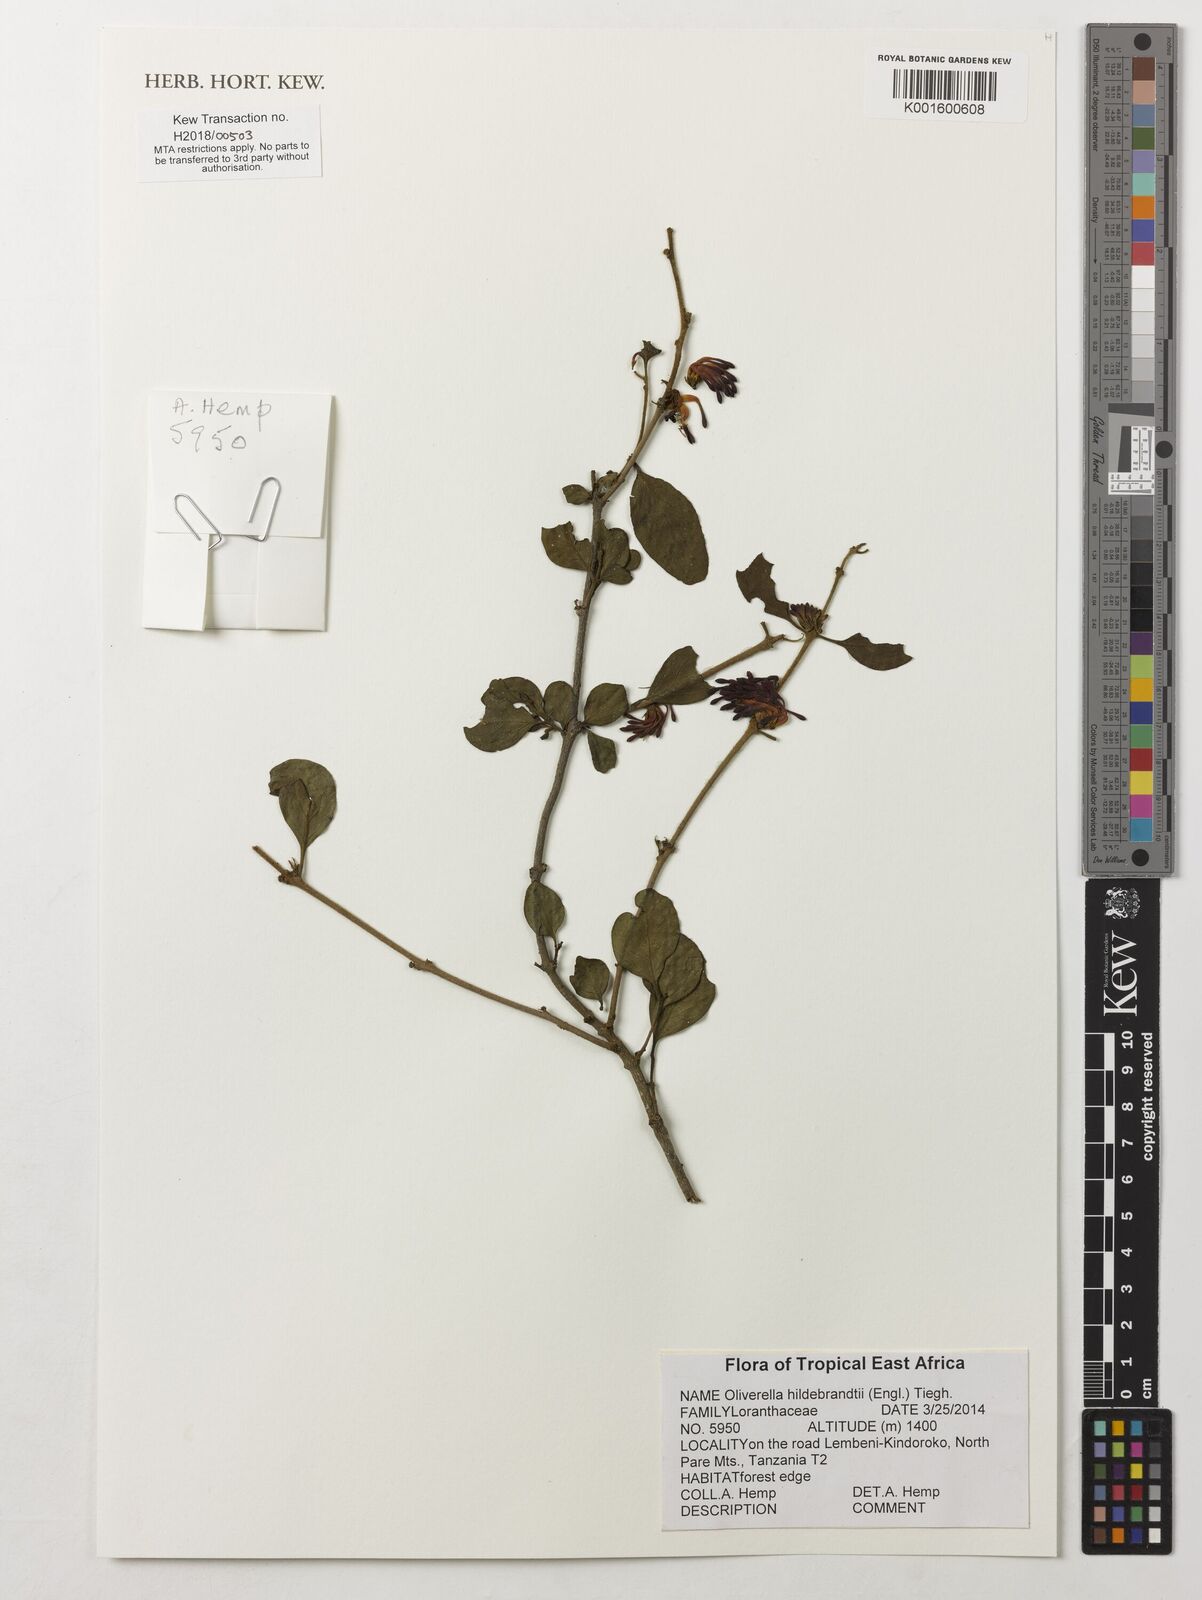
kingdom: Plantae
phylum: Tracheophyta
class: Magnoliopsida
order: Santalales
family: Loranthaceae
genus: Oliverella
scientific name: Oliverella hildebrandtii
